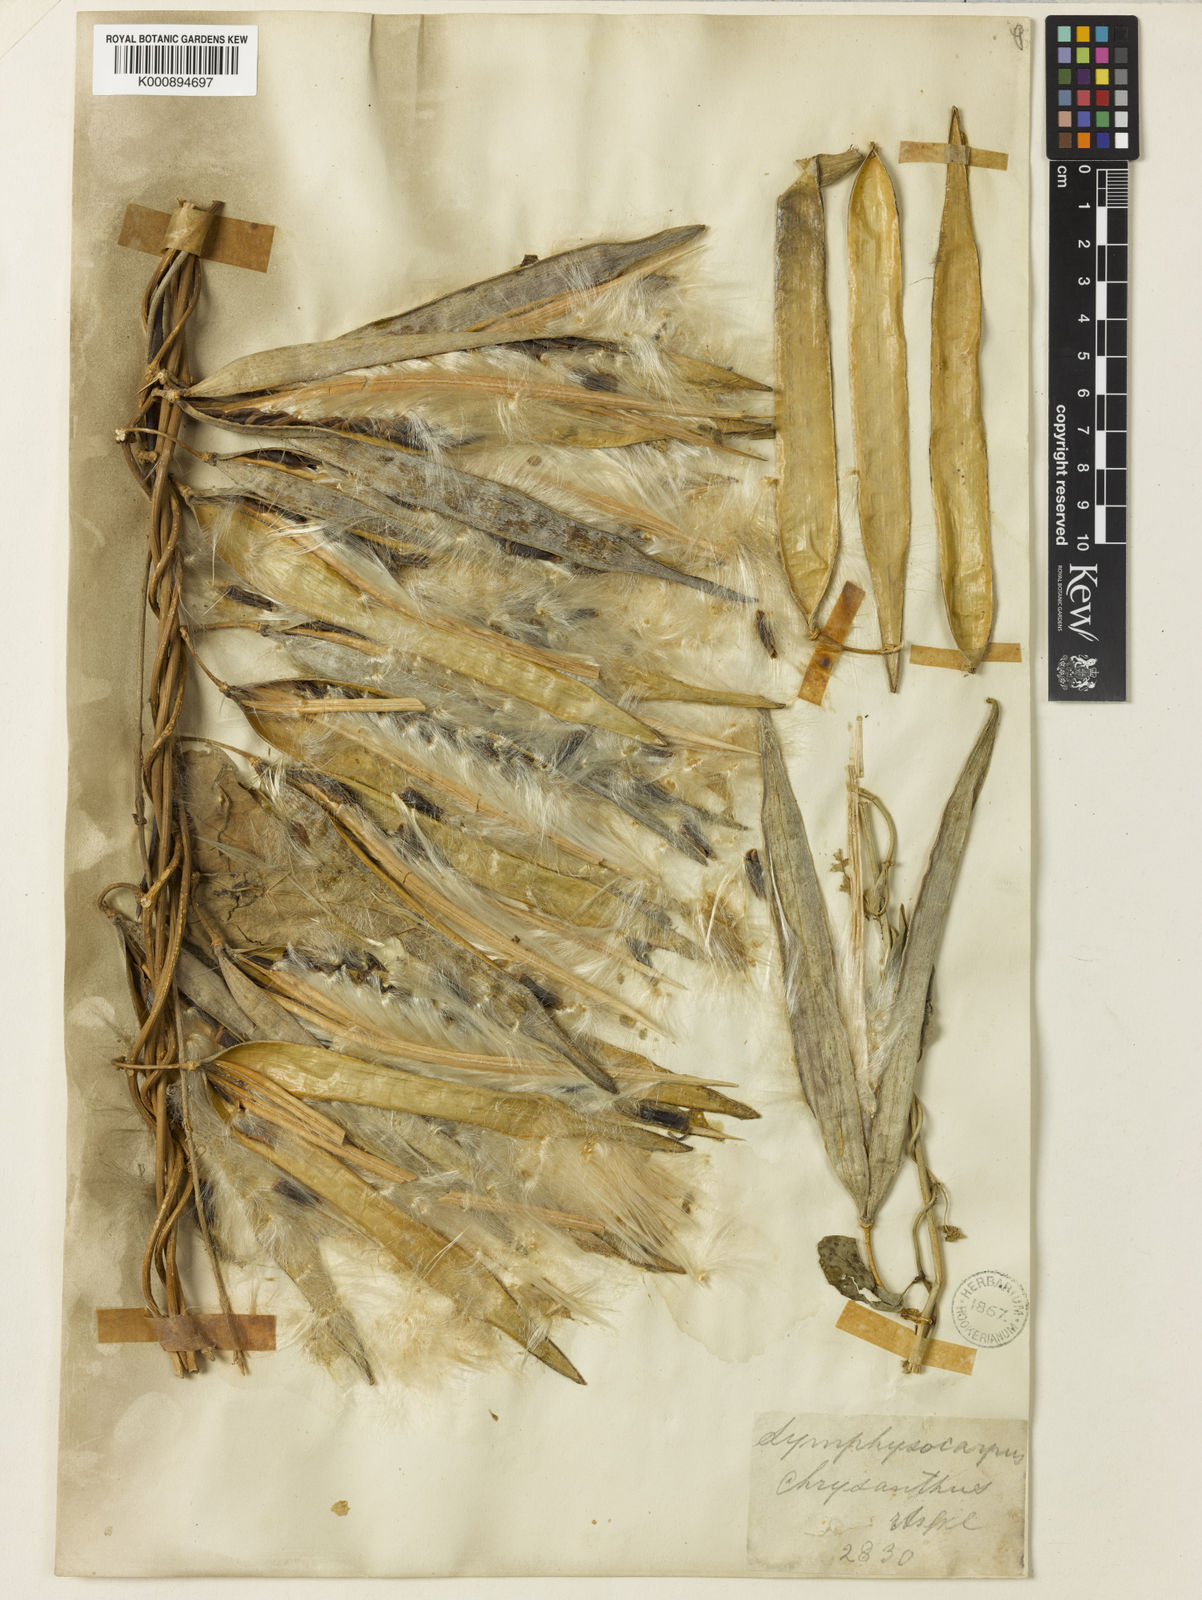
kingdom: Plantae
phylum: Tracheophyta
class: Magnoliopsida
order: Gentianales
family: Apocynaceae
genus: Heterostemma
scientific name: Heterostemma acuminatum
